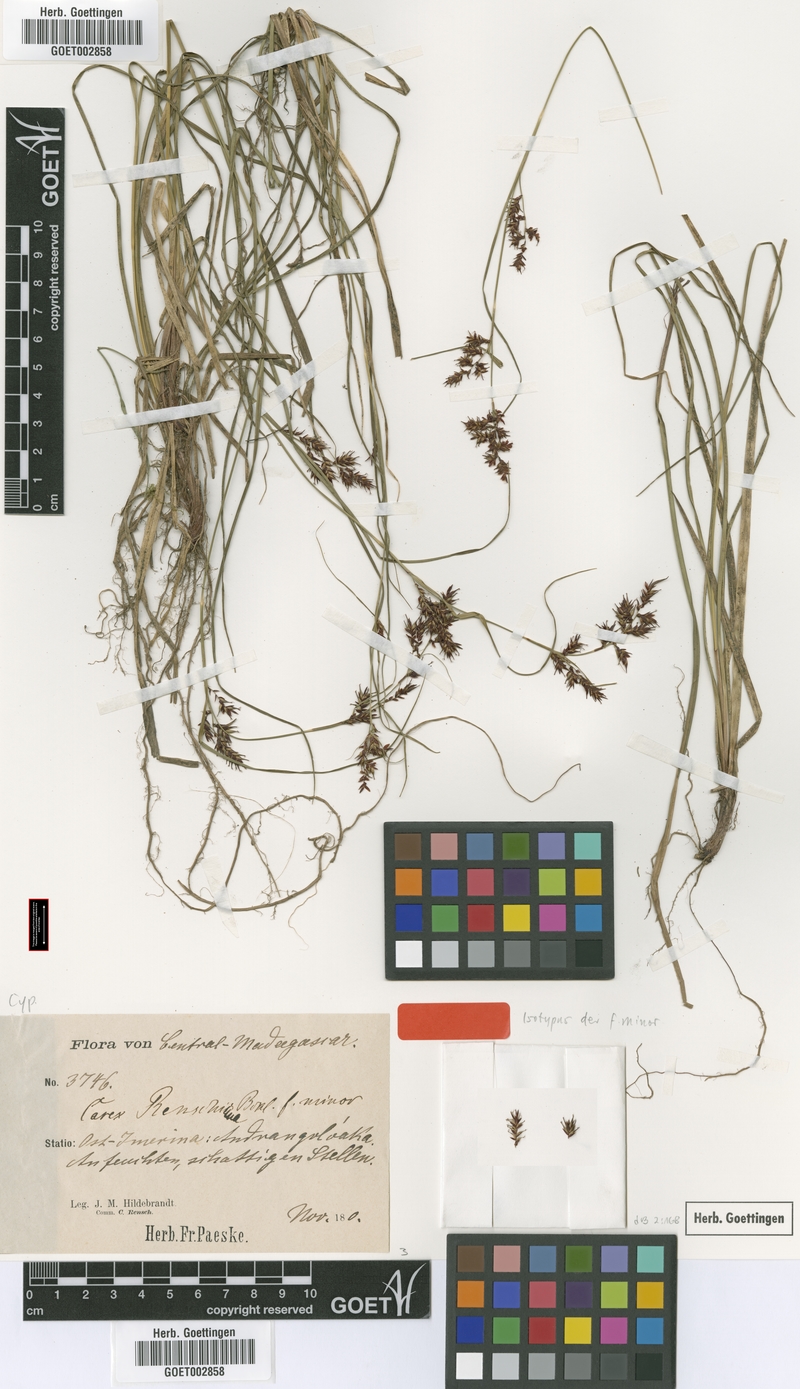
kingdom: Plantae
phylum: Tracheophyta
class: Liliopsida
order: Poales
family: Cyperaceae
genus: Carex
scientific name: Carex renschiana
